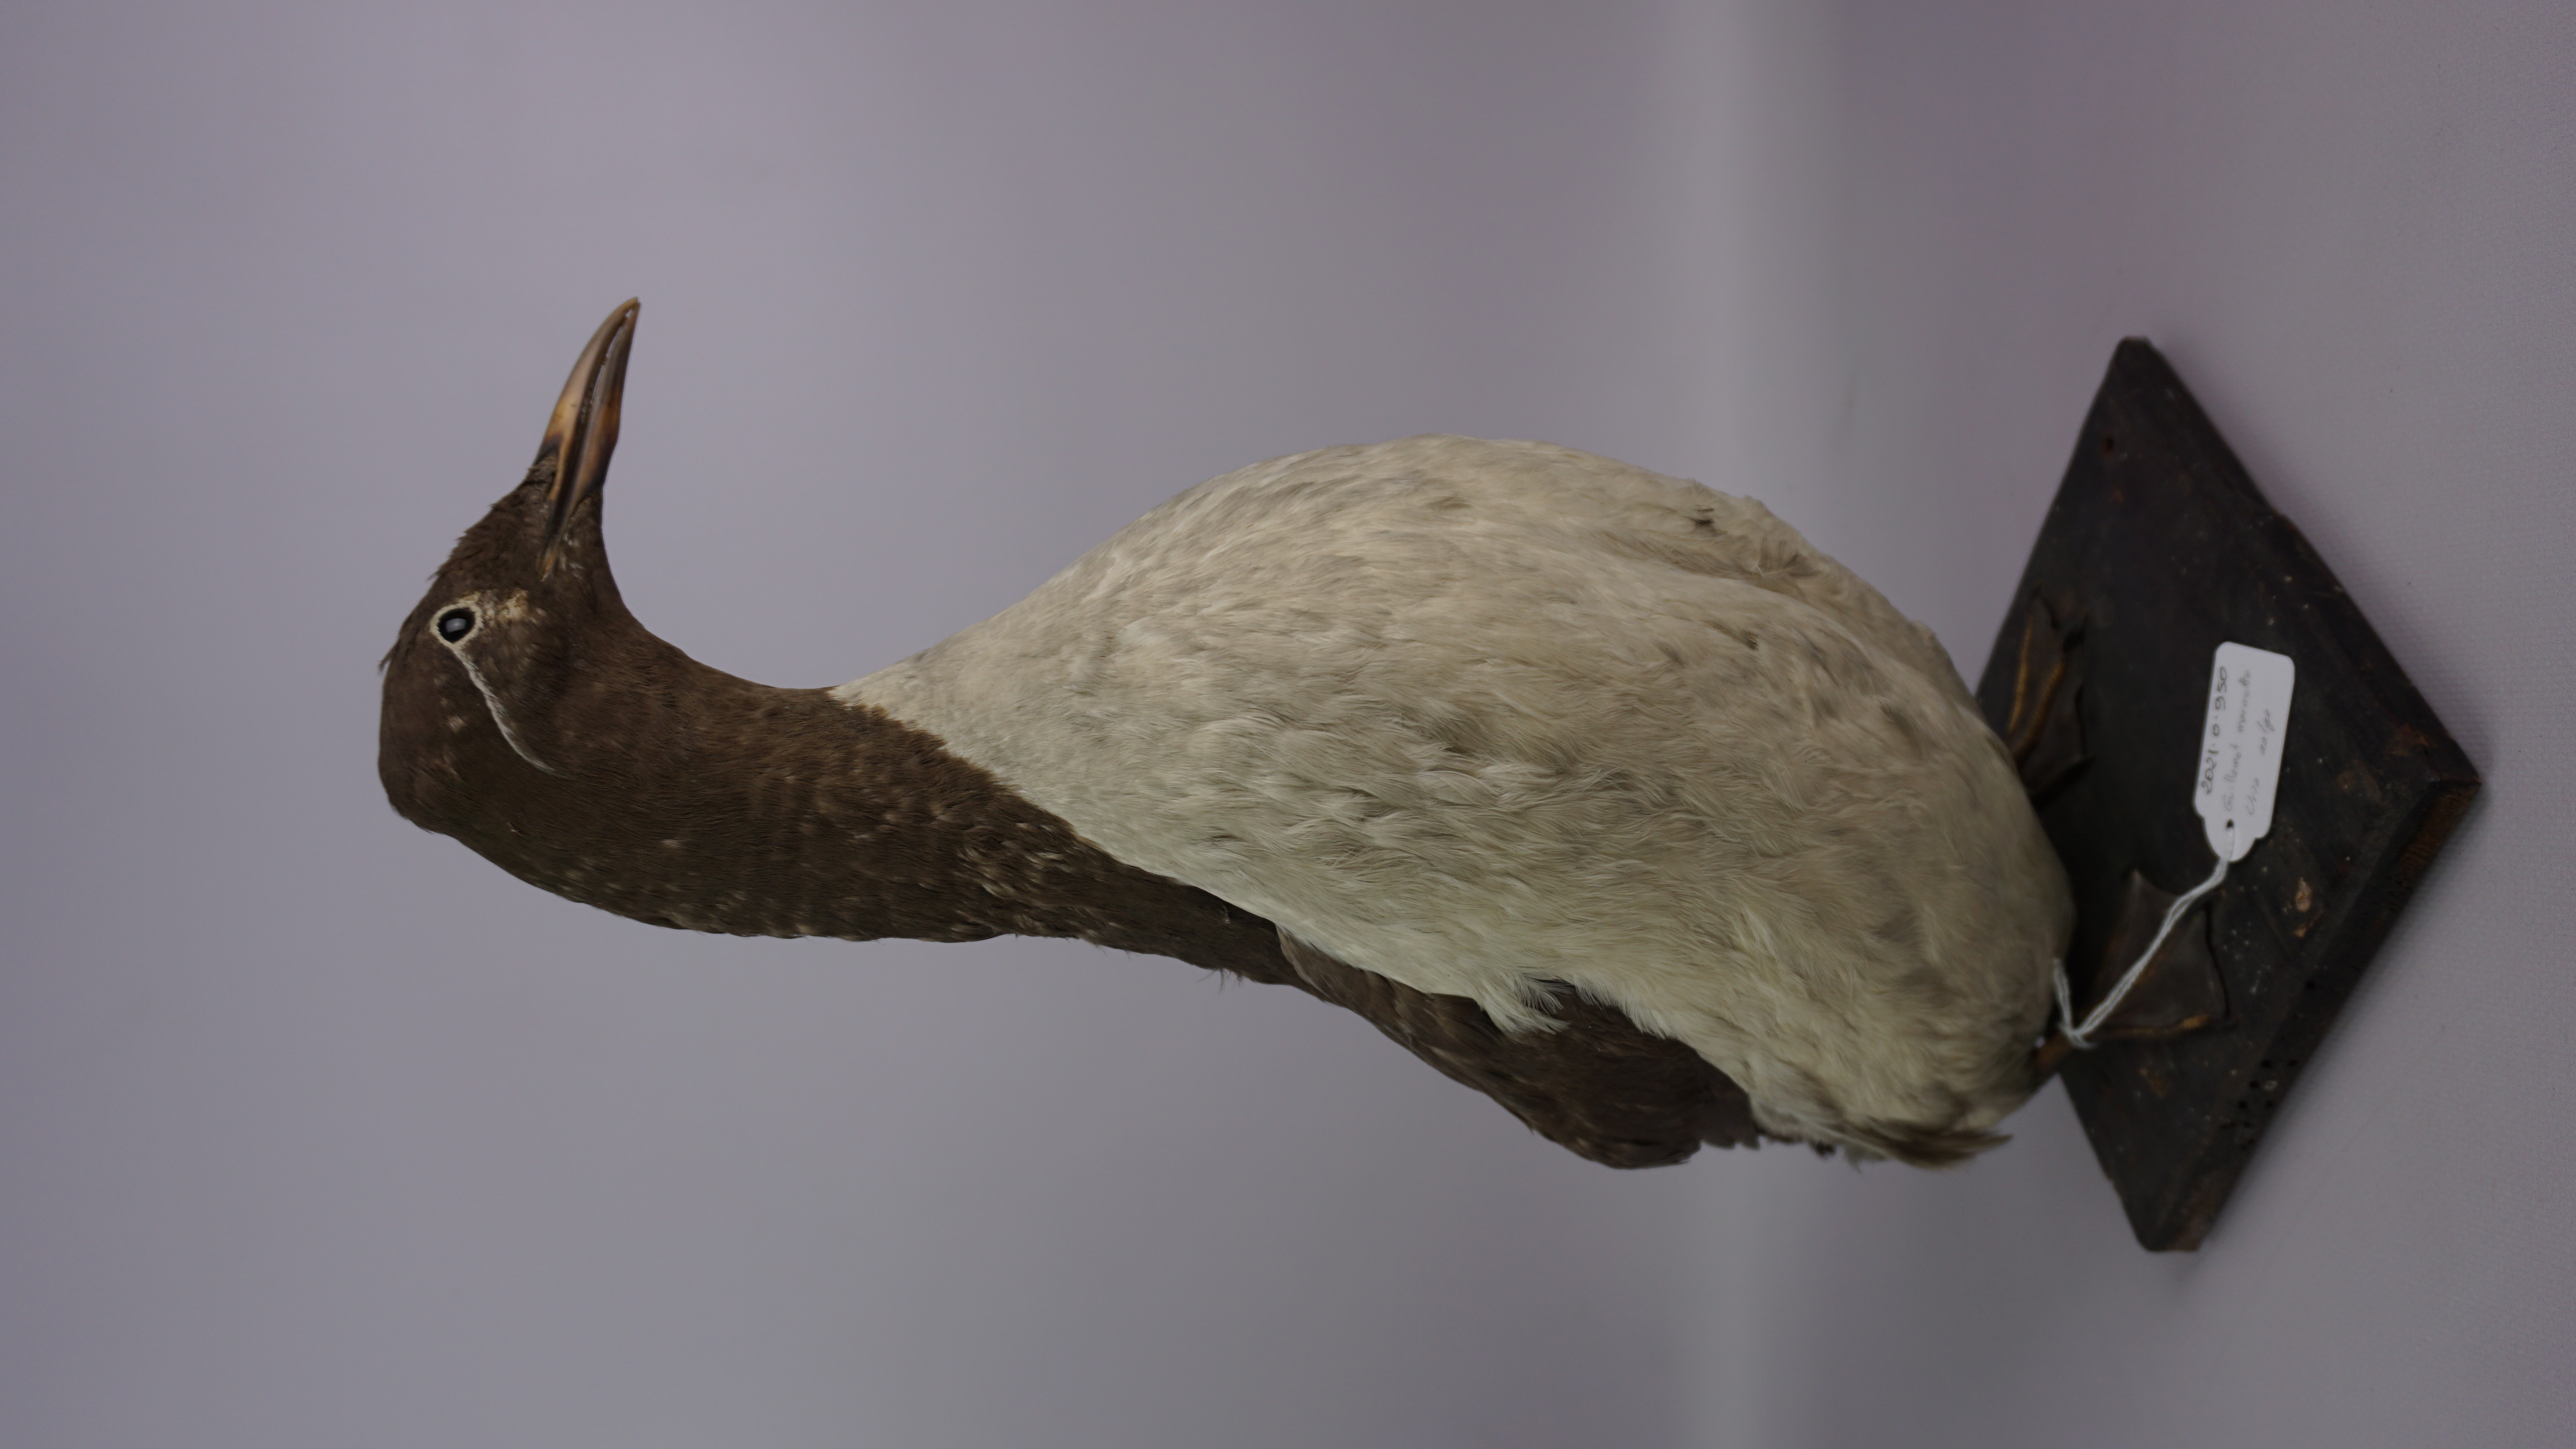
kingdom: Animalia
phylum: Chordata
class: Aves
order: Charadriiformes
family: Alcidae
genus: Uria
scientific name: Uria aalge
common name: Common murre
